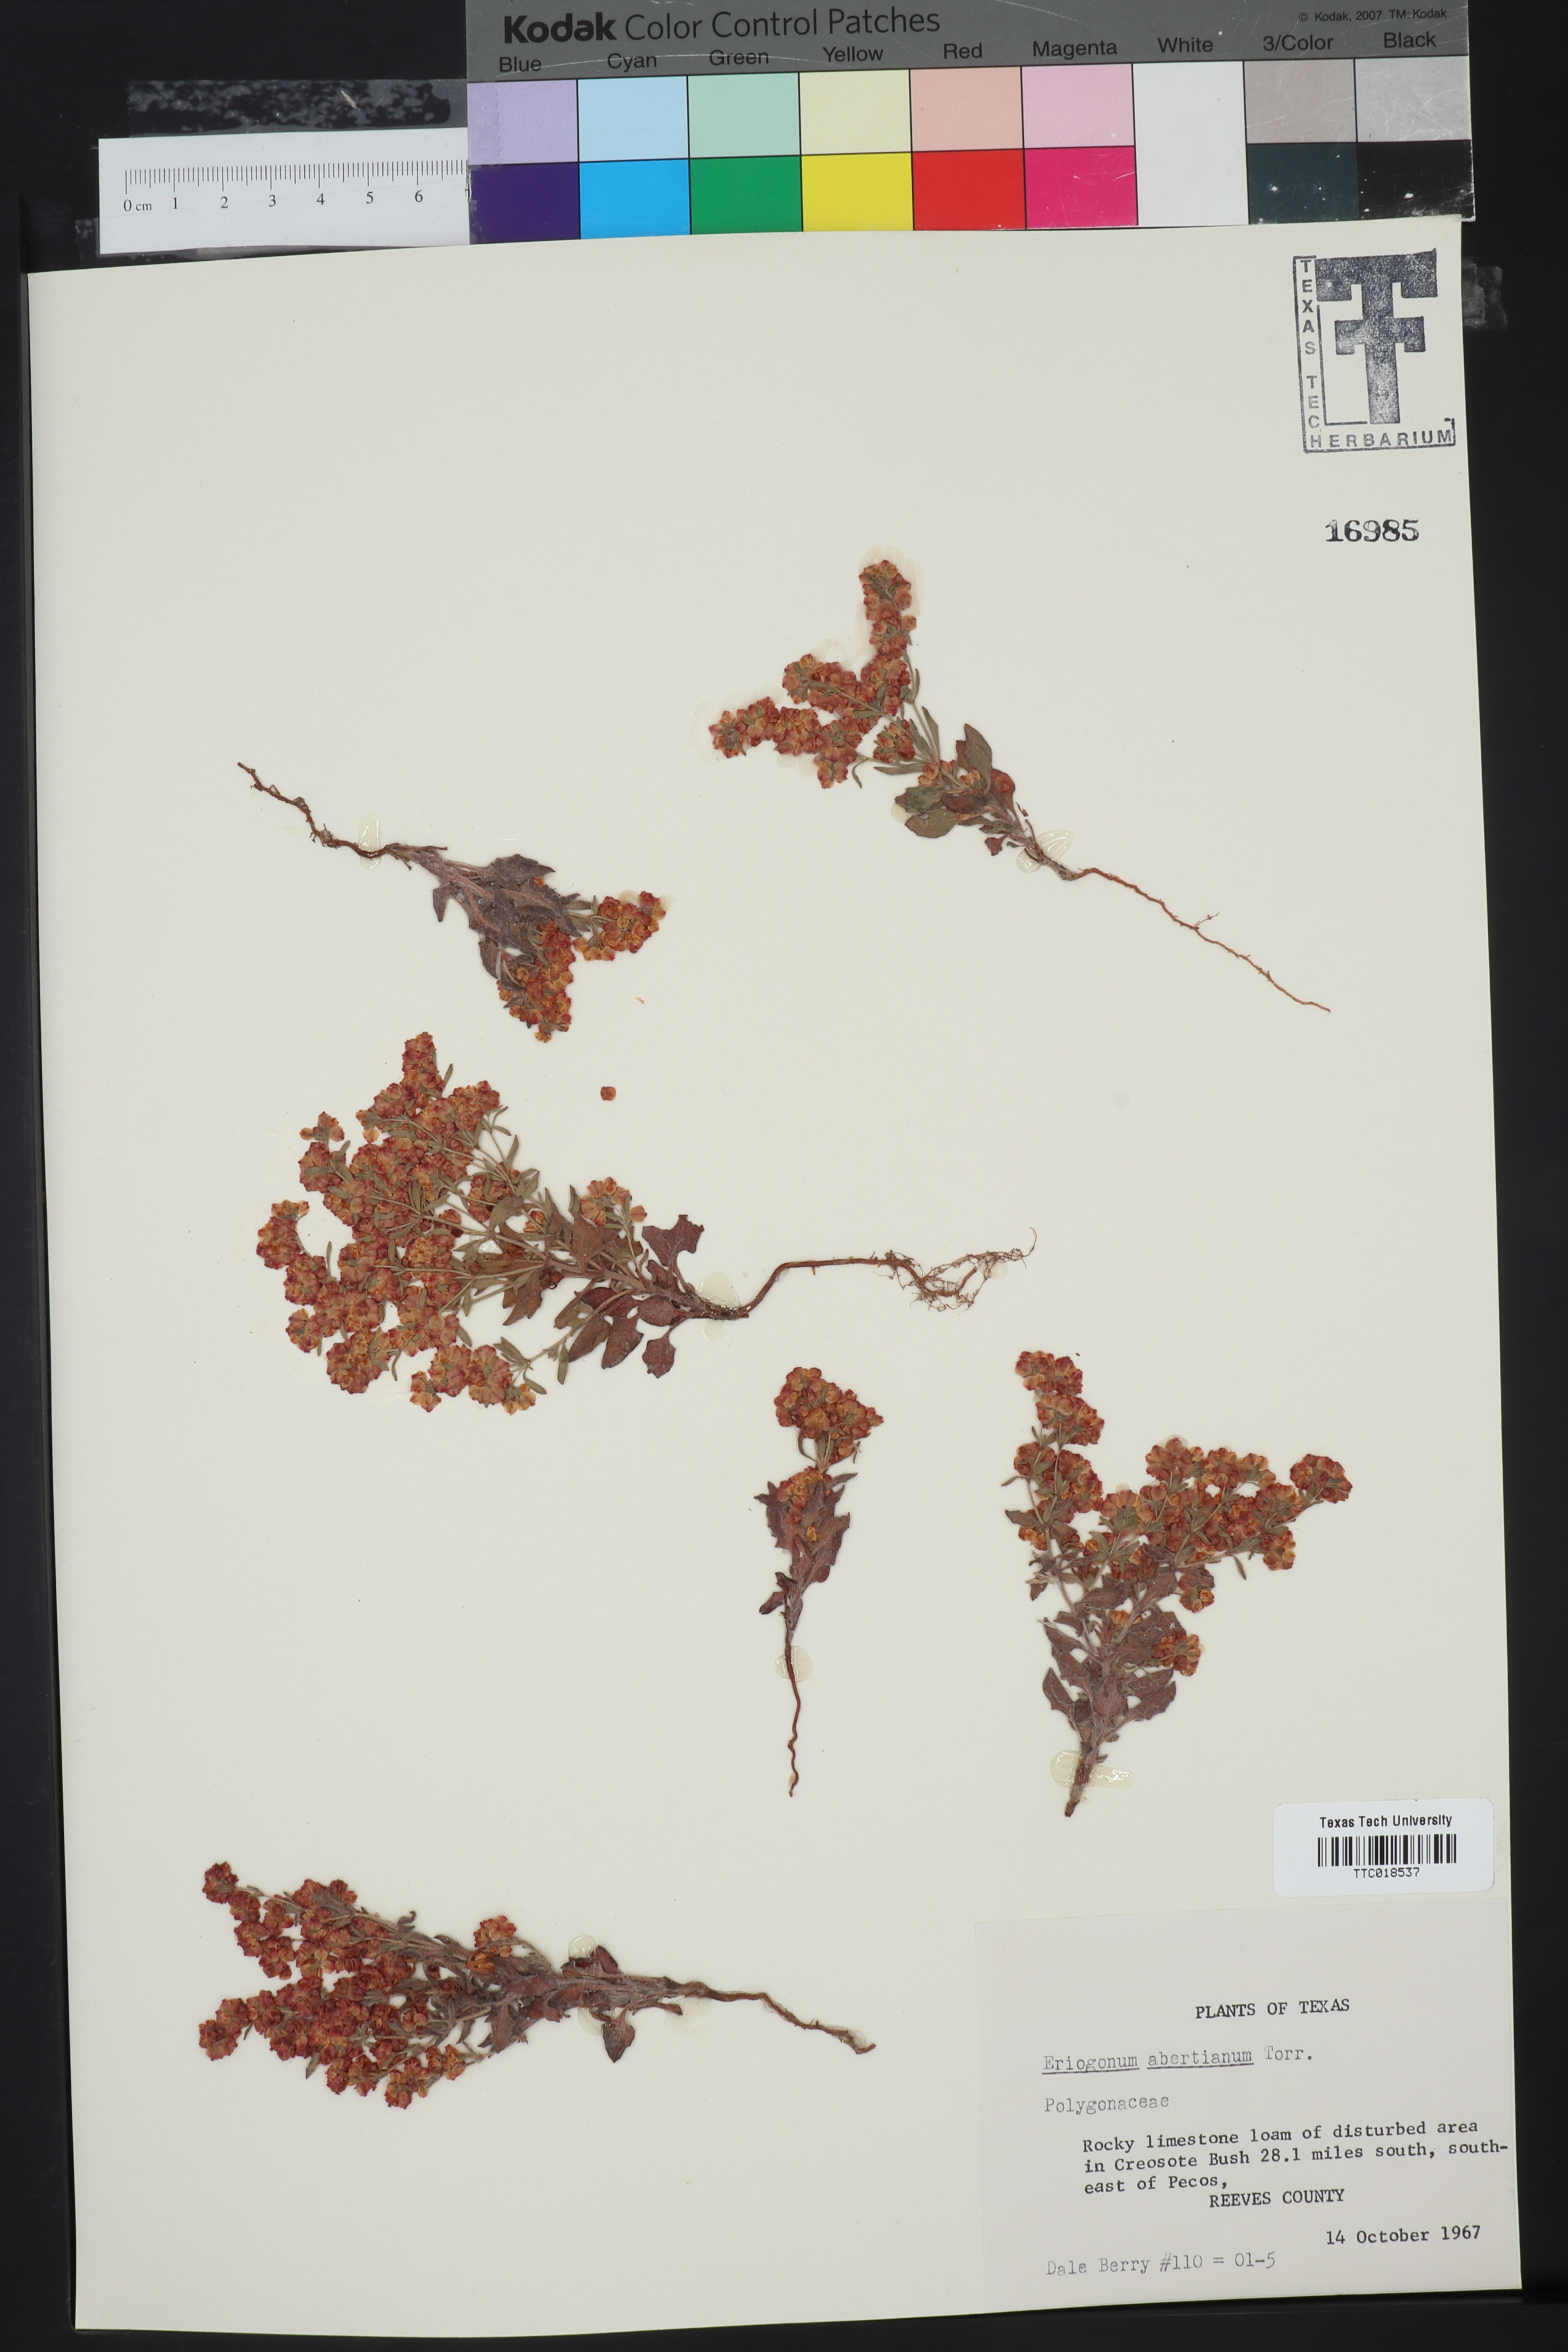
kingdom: Plantae
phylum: Tracheophyta
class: Magnoliopsida
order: Caryophyllales
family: Polygonaceae
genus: Eriogonum
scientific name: Eriogonum abertianum
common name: Abert's wild buckwheat
